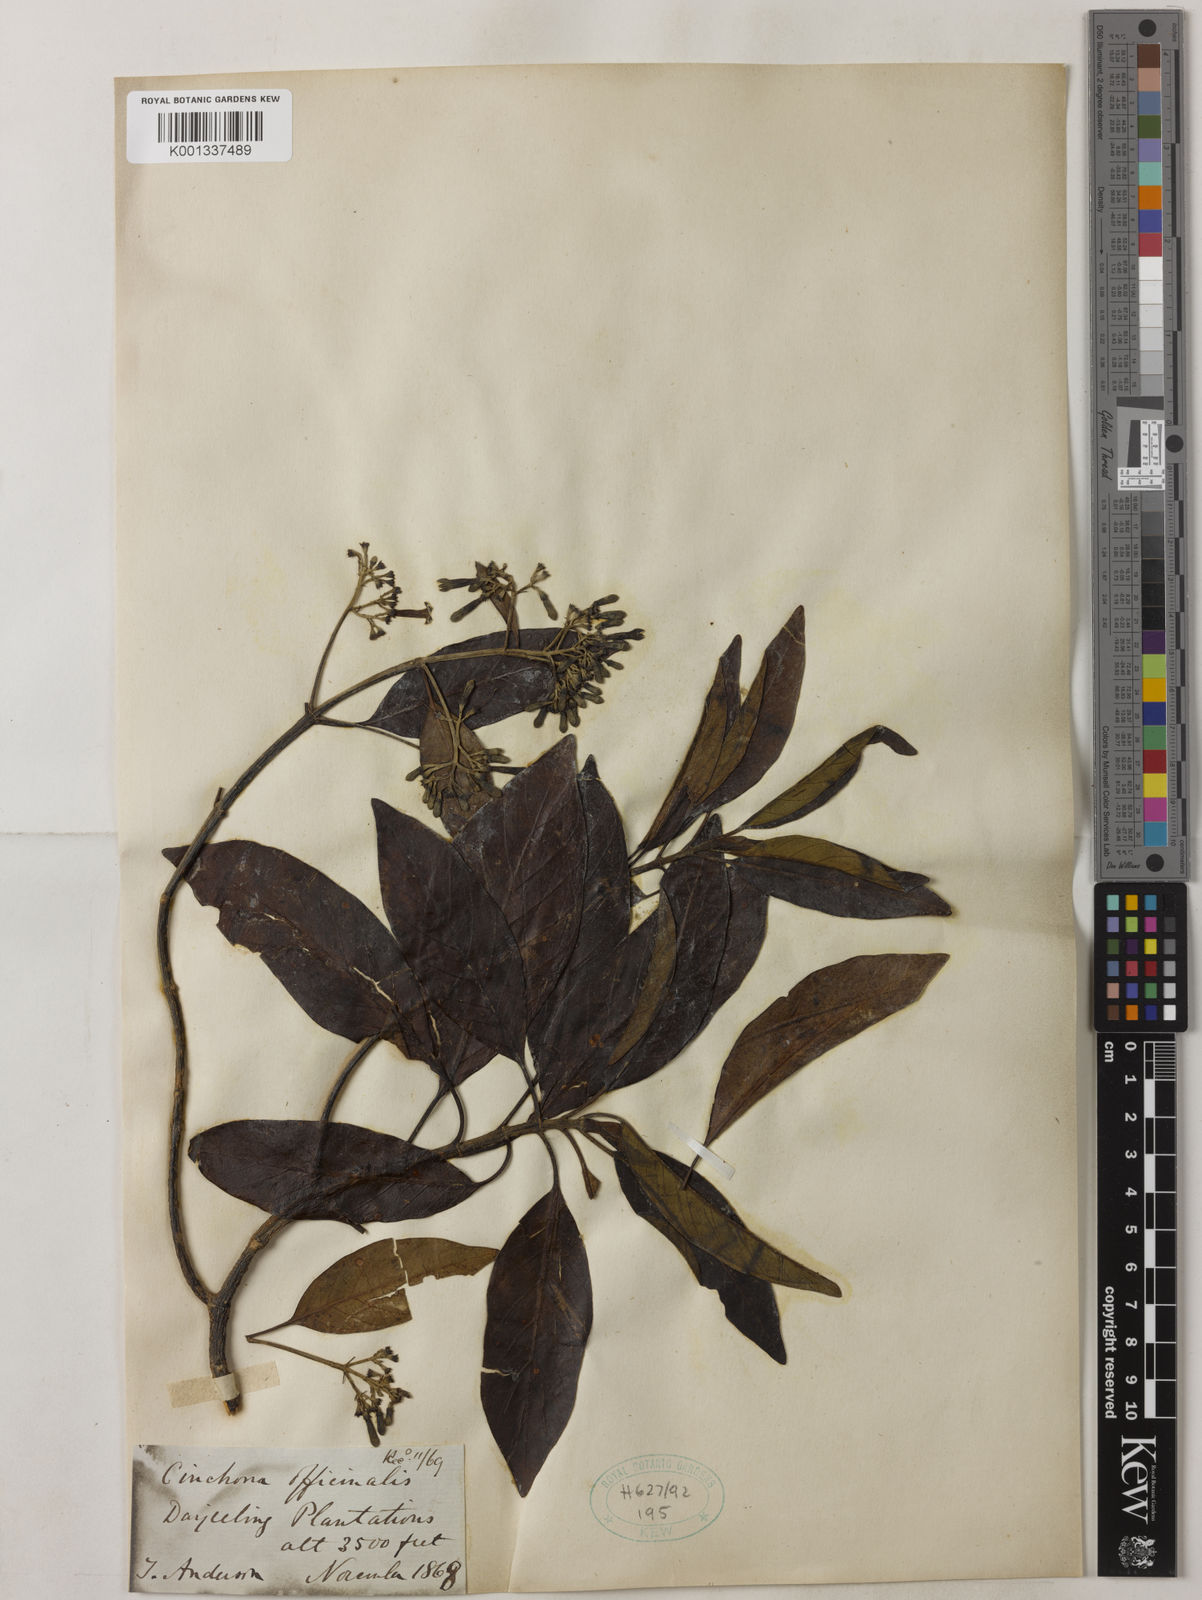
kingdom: Plantae
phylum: Tracheophyta
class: Magnoliopsida
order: Gentianales
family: Rubiaceae
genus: Cinchona
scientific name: Cinchona officinalis
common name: Lojabark
